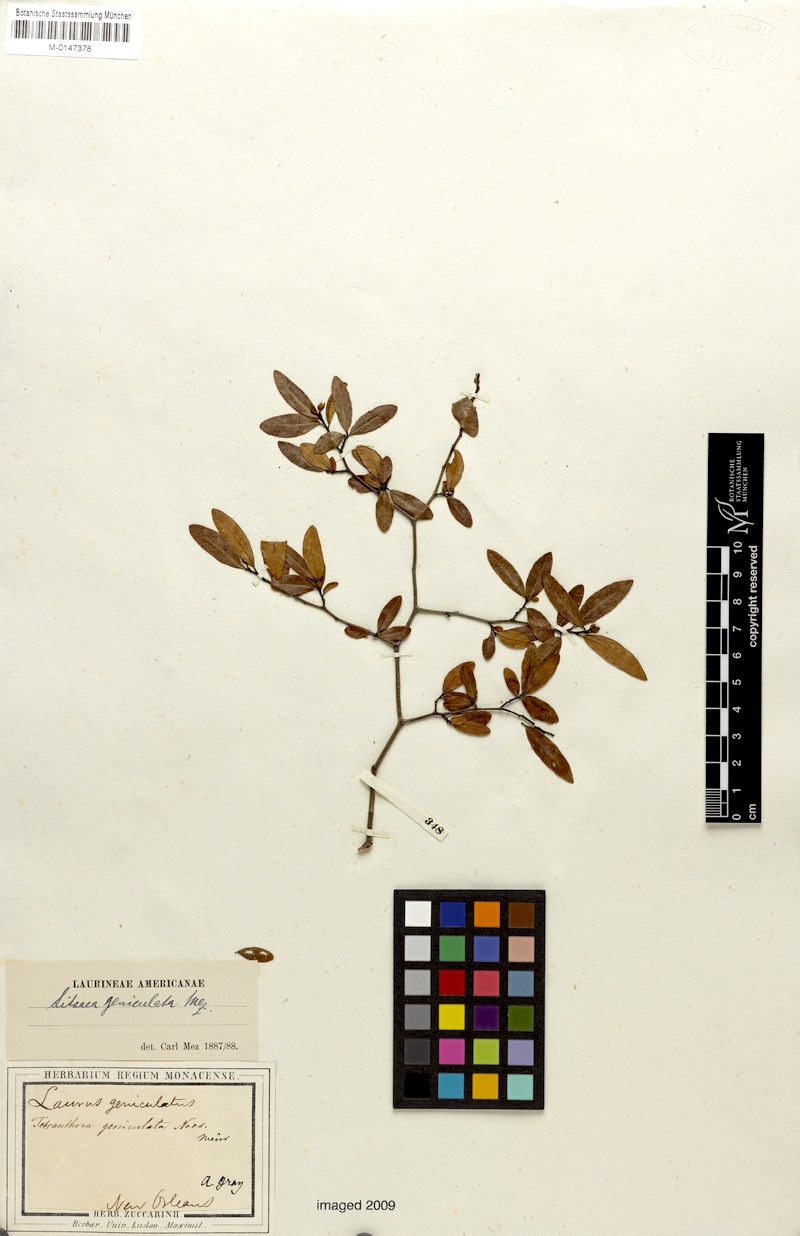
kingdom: Plantae
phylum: Tracheophyta
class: Magnoliopsida
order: Laurales
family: Lauraceae
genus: Litsea
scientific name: Litsea aestivalis
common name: Pondspice
